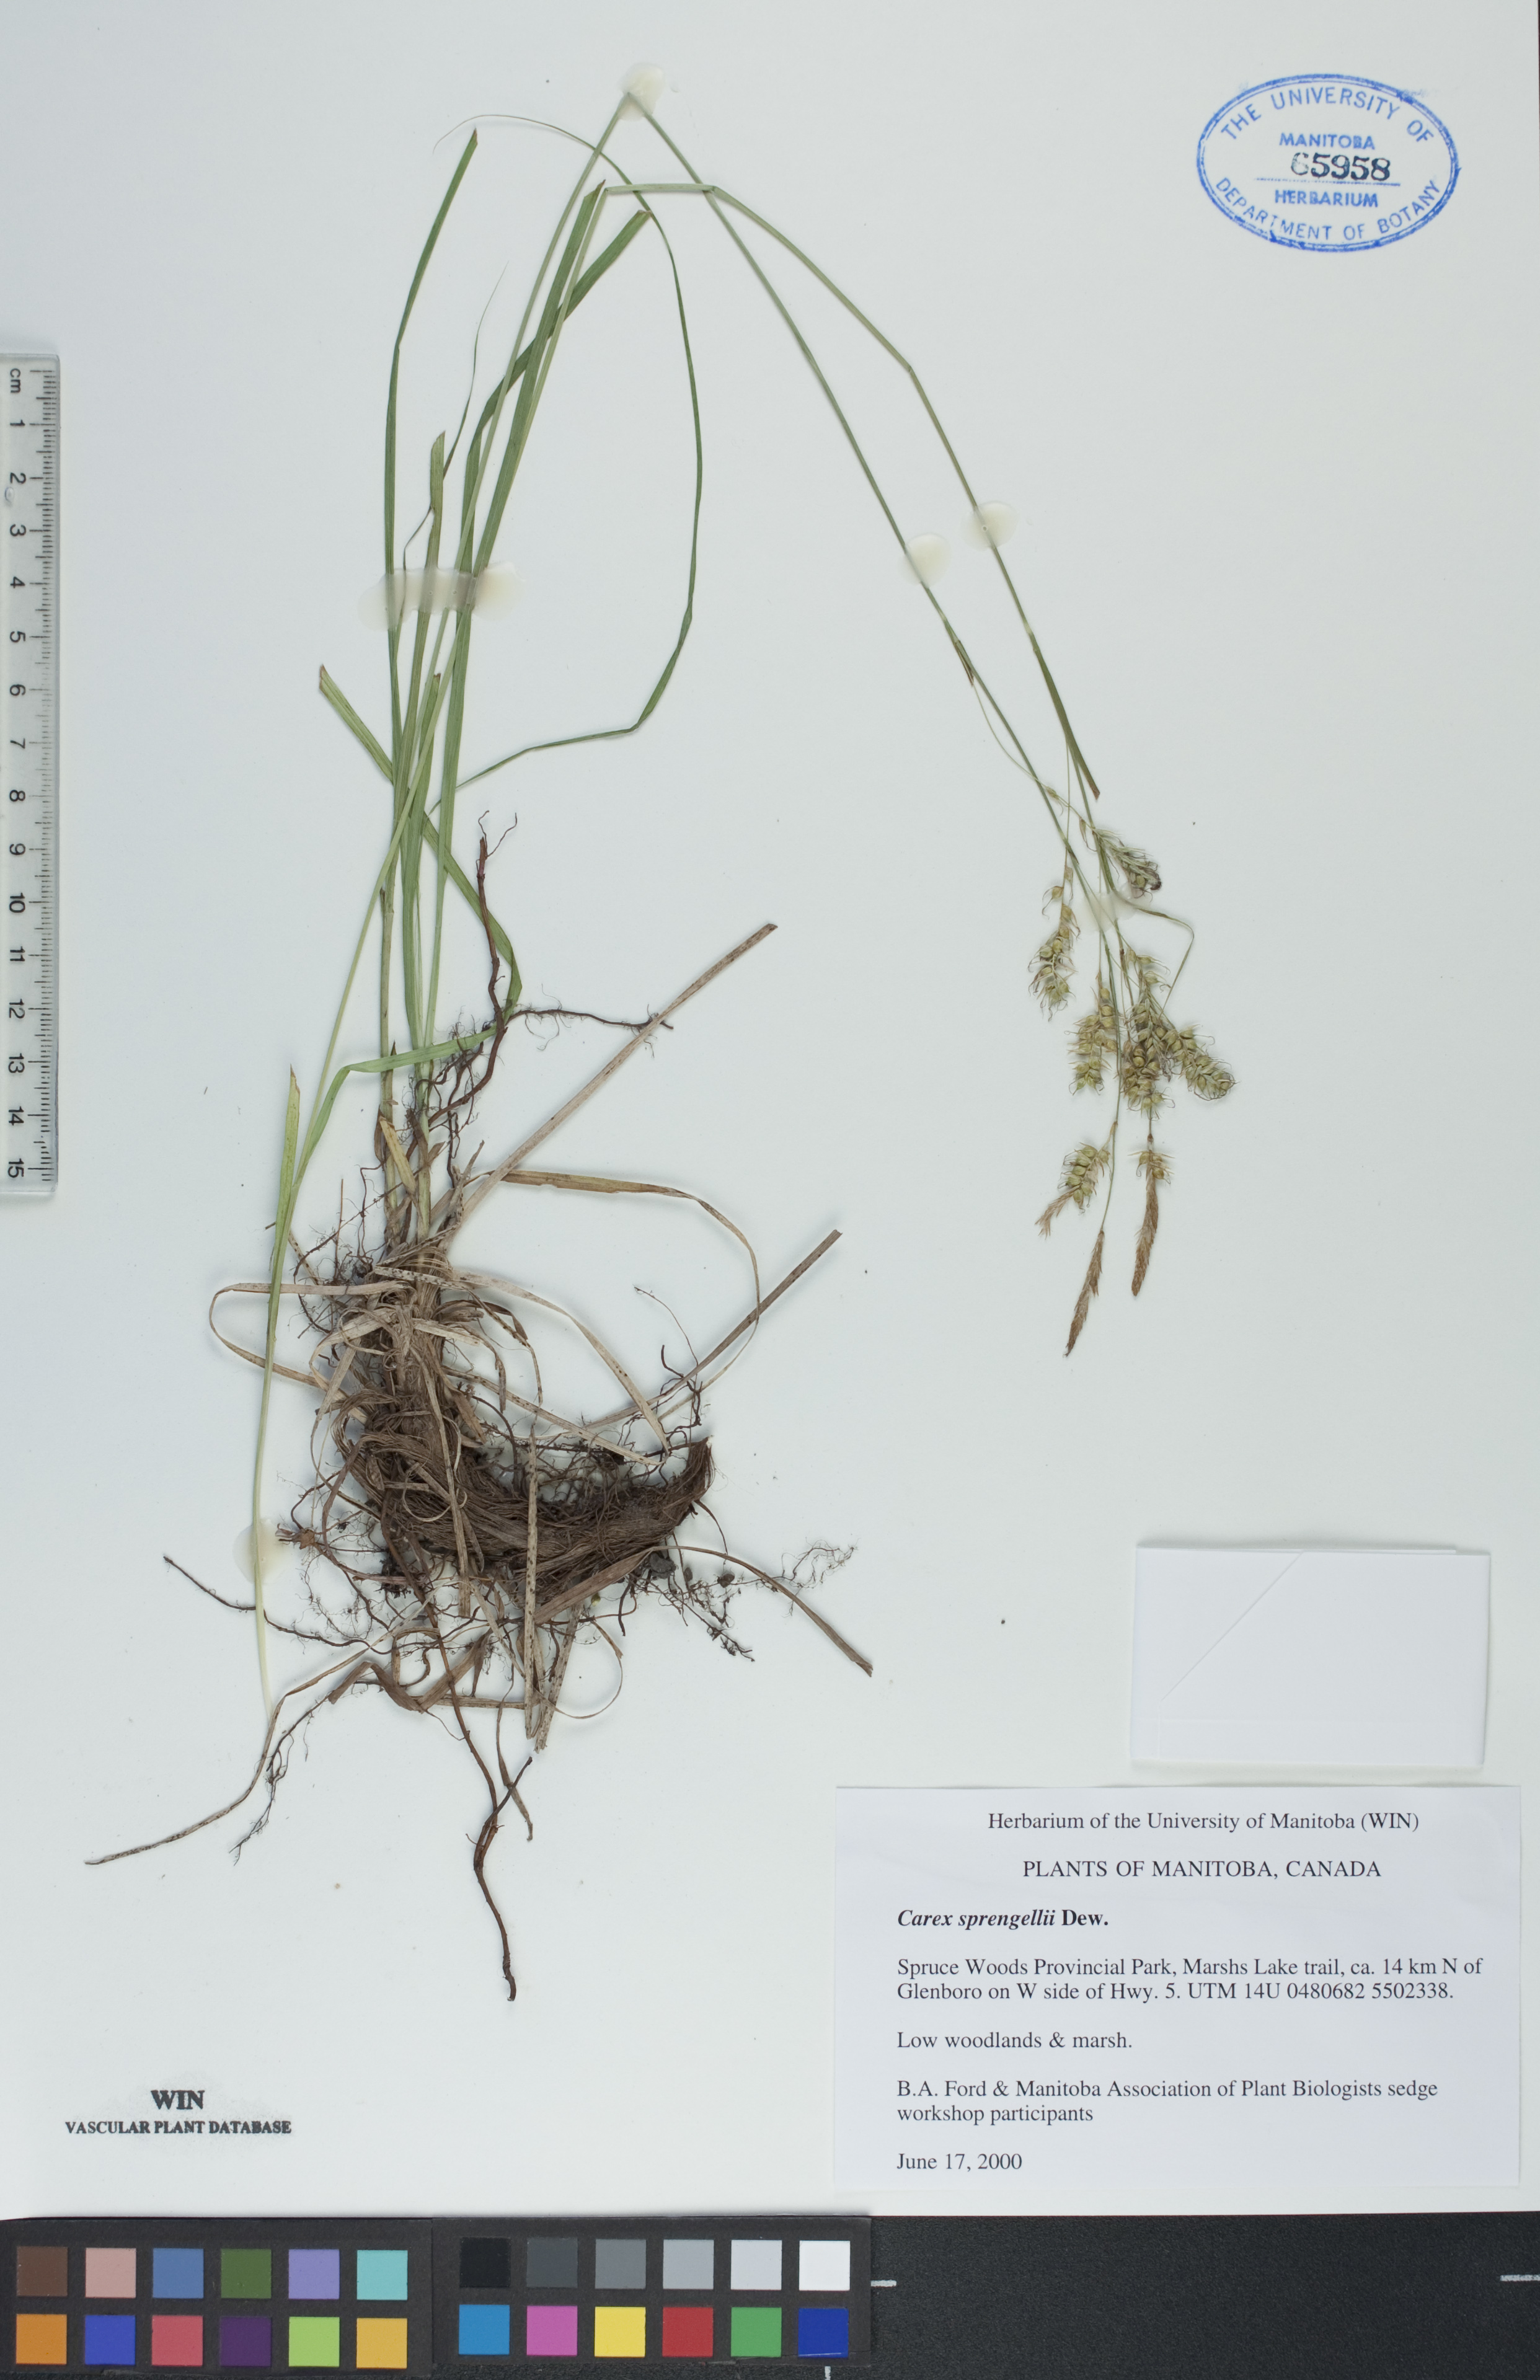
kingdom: Plantae
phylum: Tracheophyta
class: Liliopsida
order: Poales
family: Cyperaceae
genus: Carex
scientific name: Carex sprengelii
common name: Long-beaked sedge
